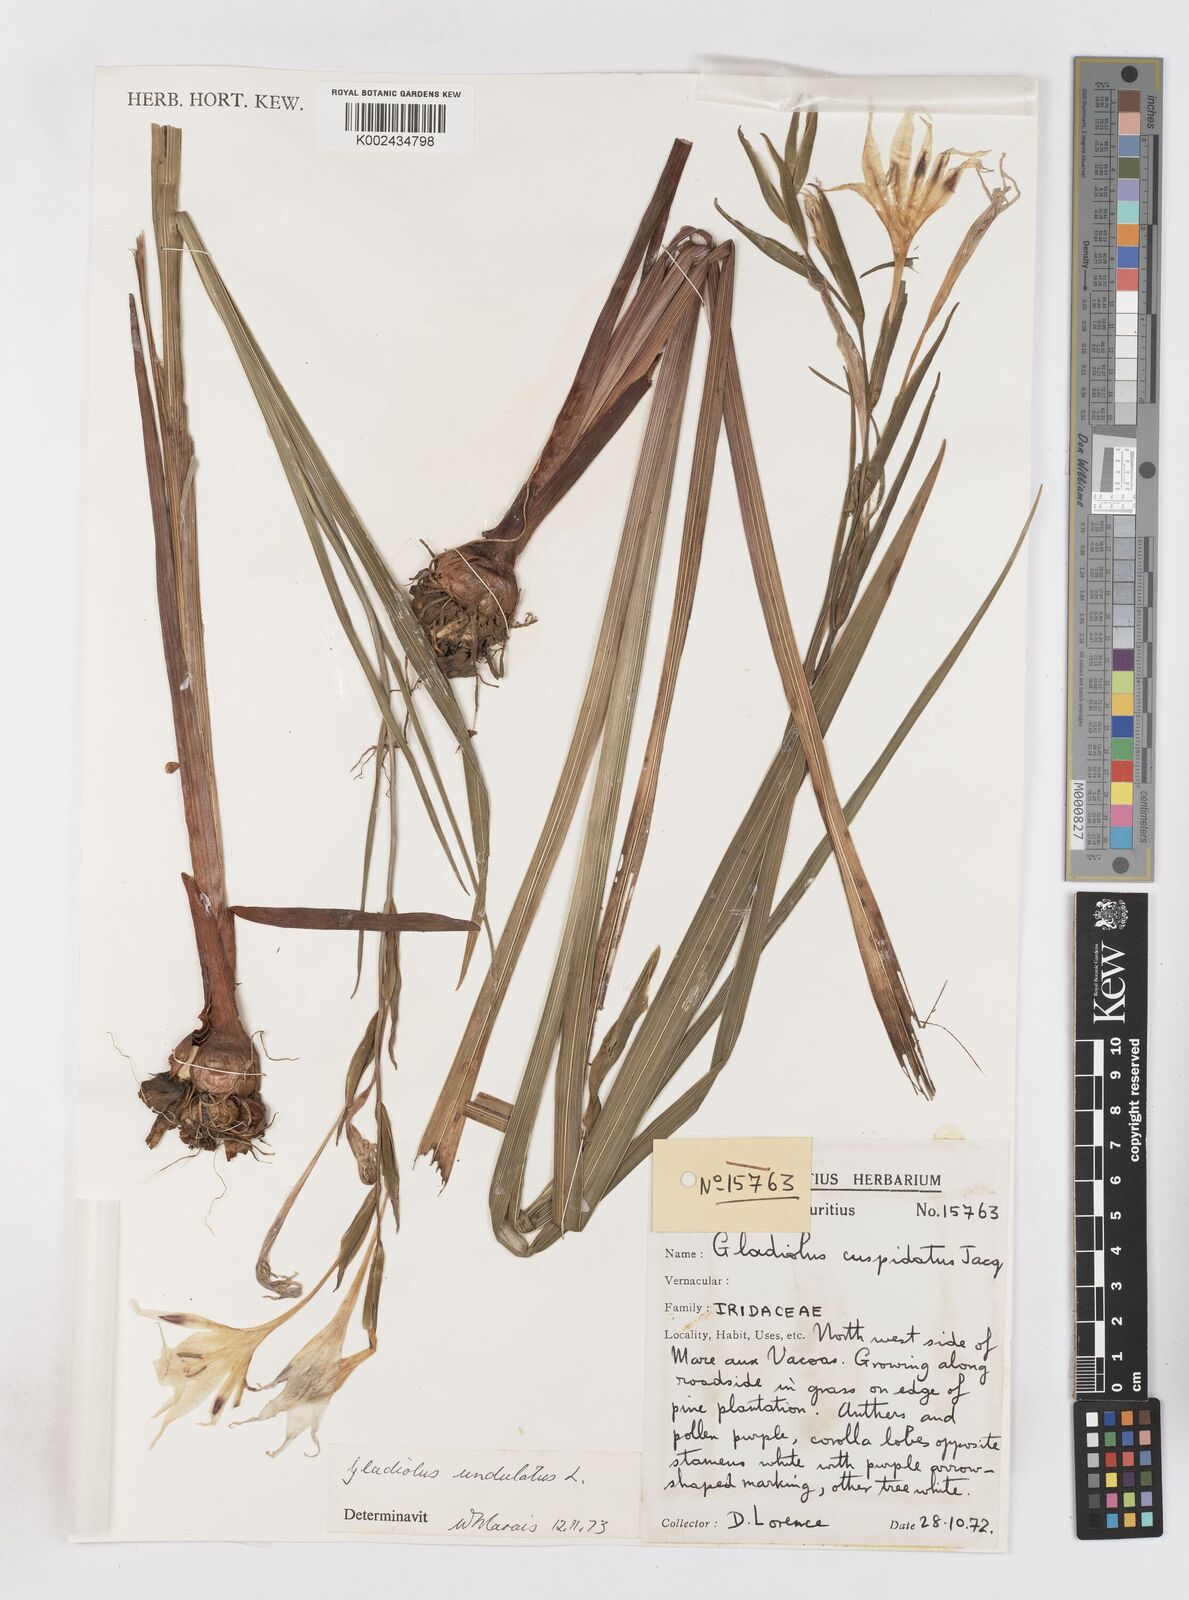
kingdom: Plantae
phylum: Tracheophyta
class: Liliopsida
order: Asparagales
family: Iridaceae
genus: Gladiolus
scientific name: Gladiolus undulatus
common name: Large painted-lady
